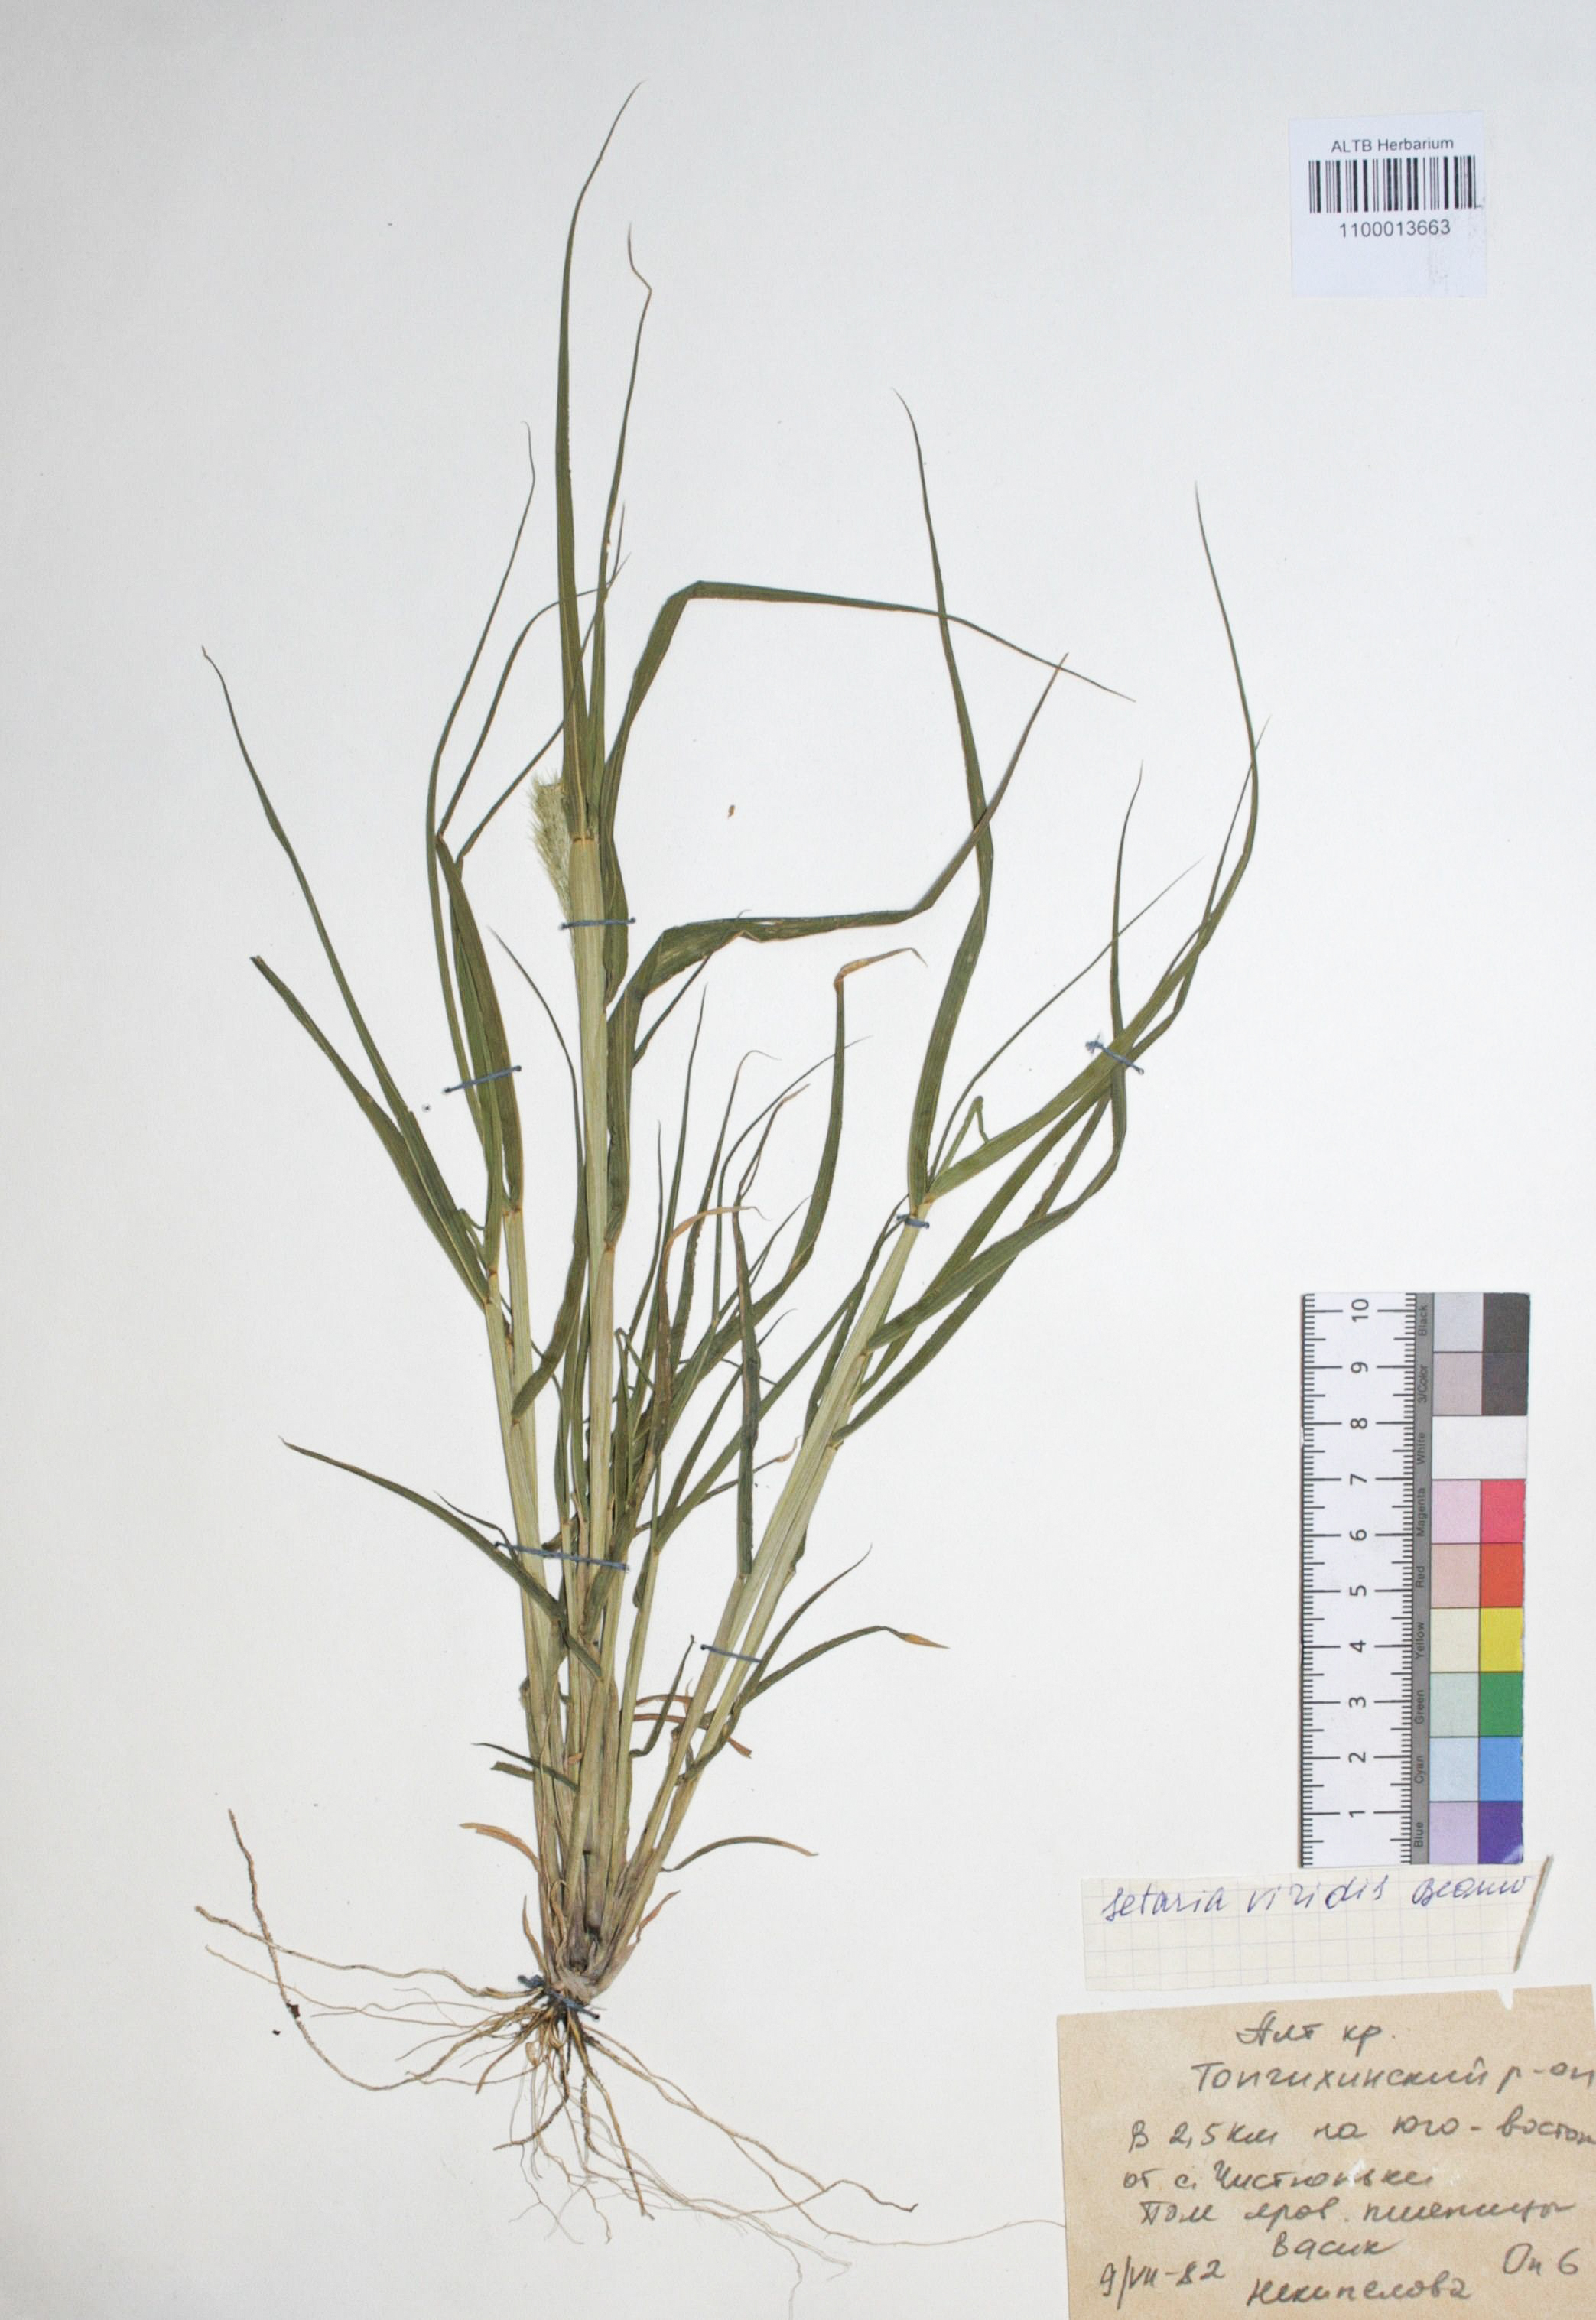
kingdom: Plantae
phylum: Tracheophyta
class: Liliopsida
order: Poales
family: Poaceae
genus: Setaria
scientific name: Setaria viridis
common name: Green bristlegrass
